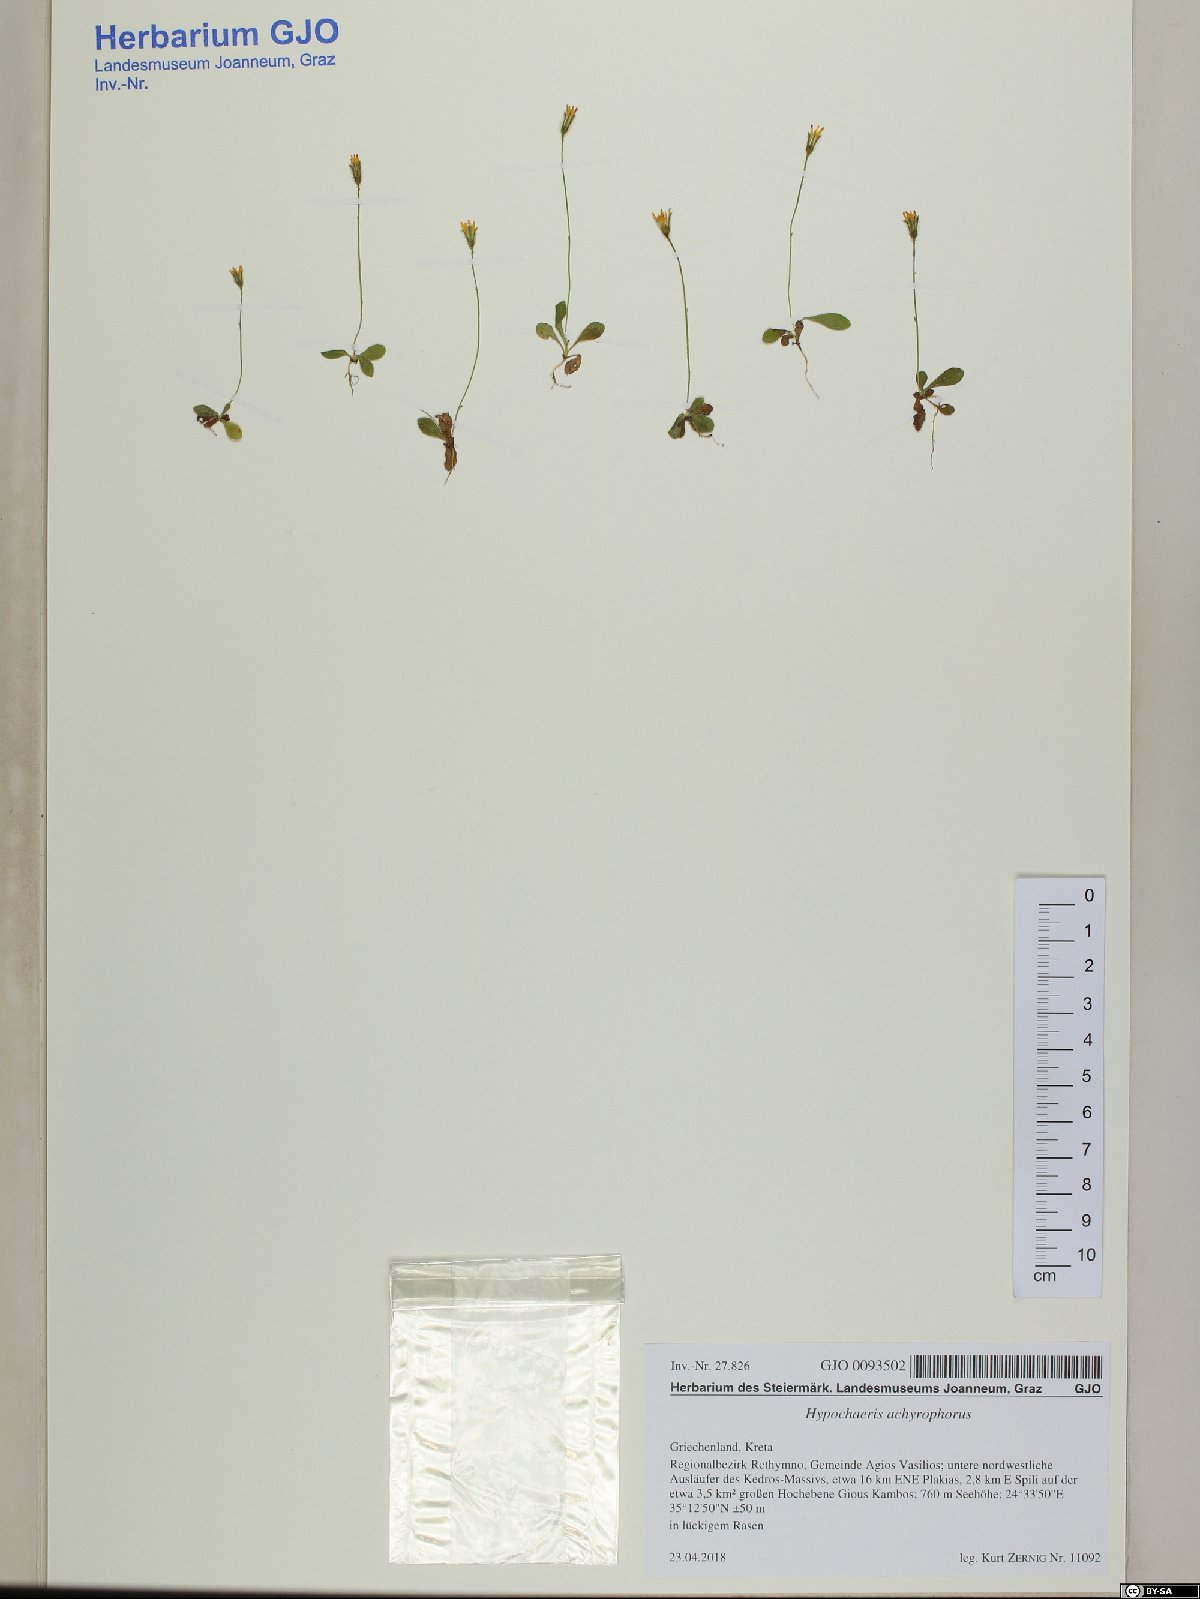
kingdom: Plantae
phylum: Tracheophyta
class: Magnoliopsida
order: Asterales
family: Asteraceae
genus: Achyrophorus
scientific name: Achyrophorus valdesii
